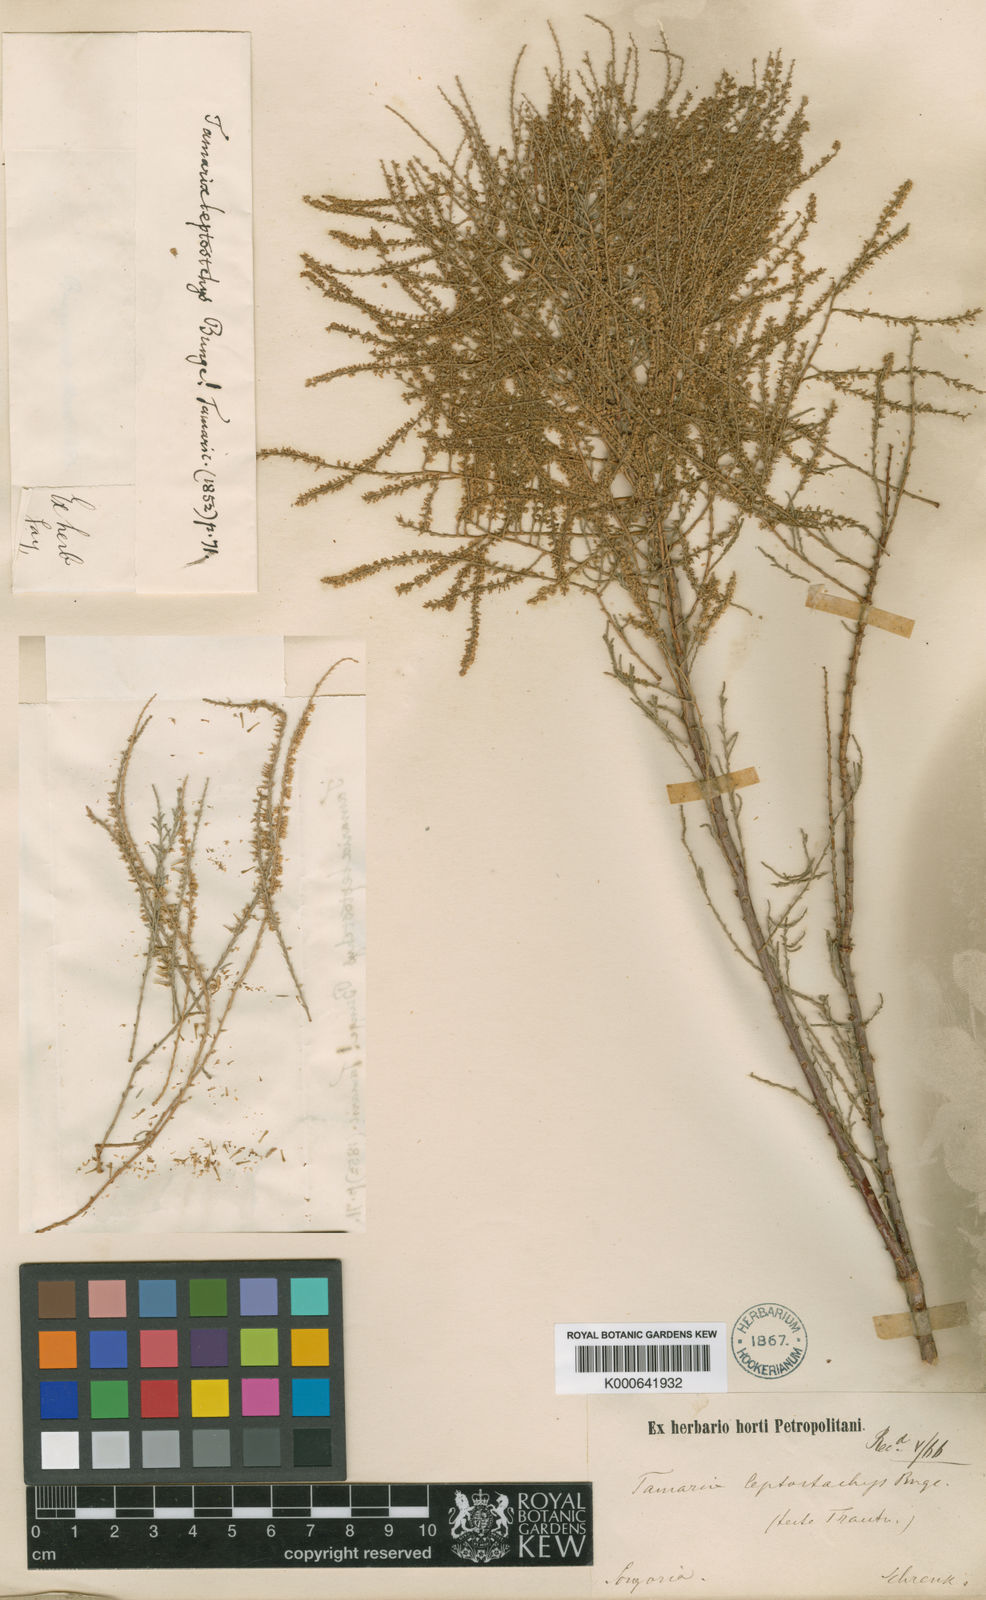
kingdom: Plantae
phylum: Tracheophyta
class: Magnoliopsida
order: Caryophyllales
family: Tamaricaceae
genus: Tamarix
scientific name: Tamarix leptostachya
